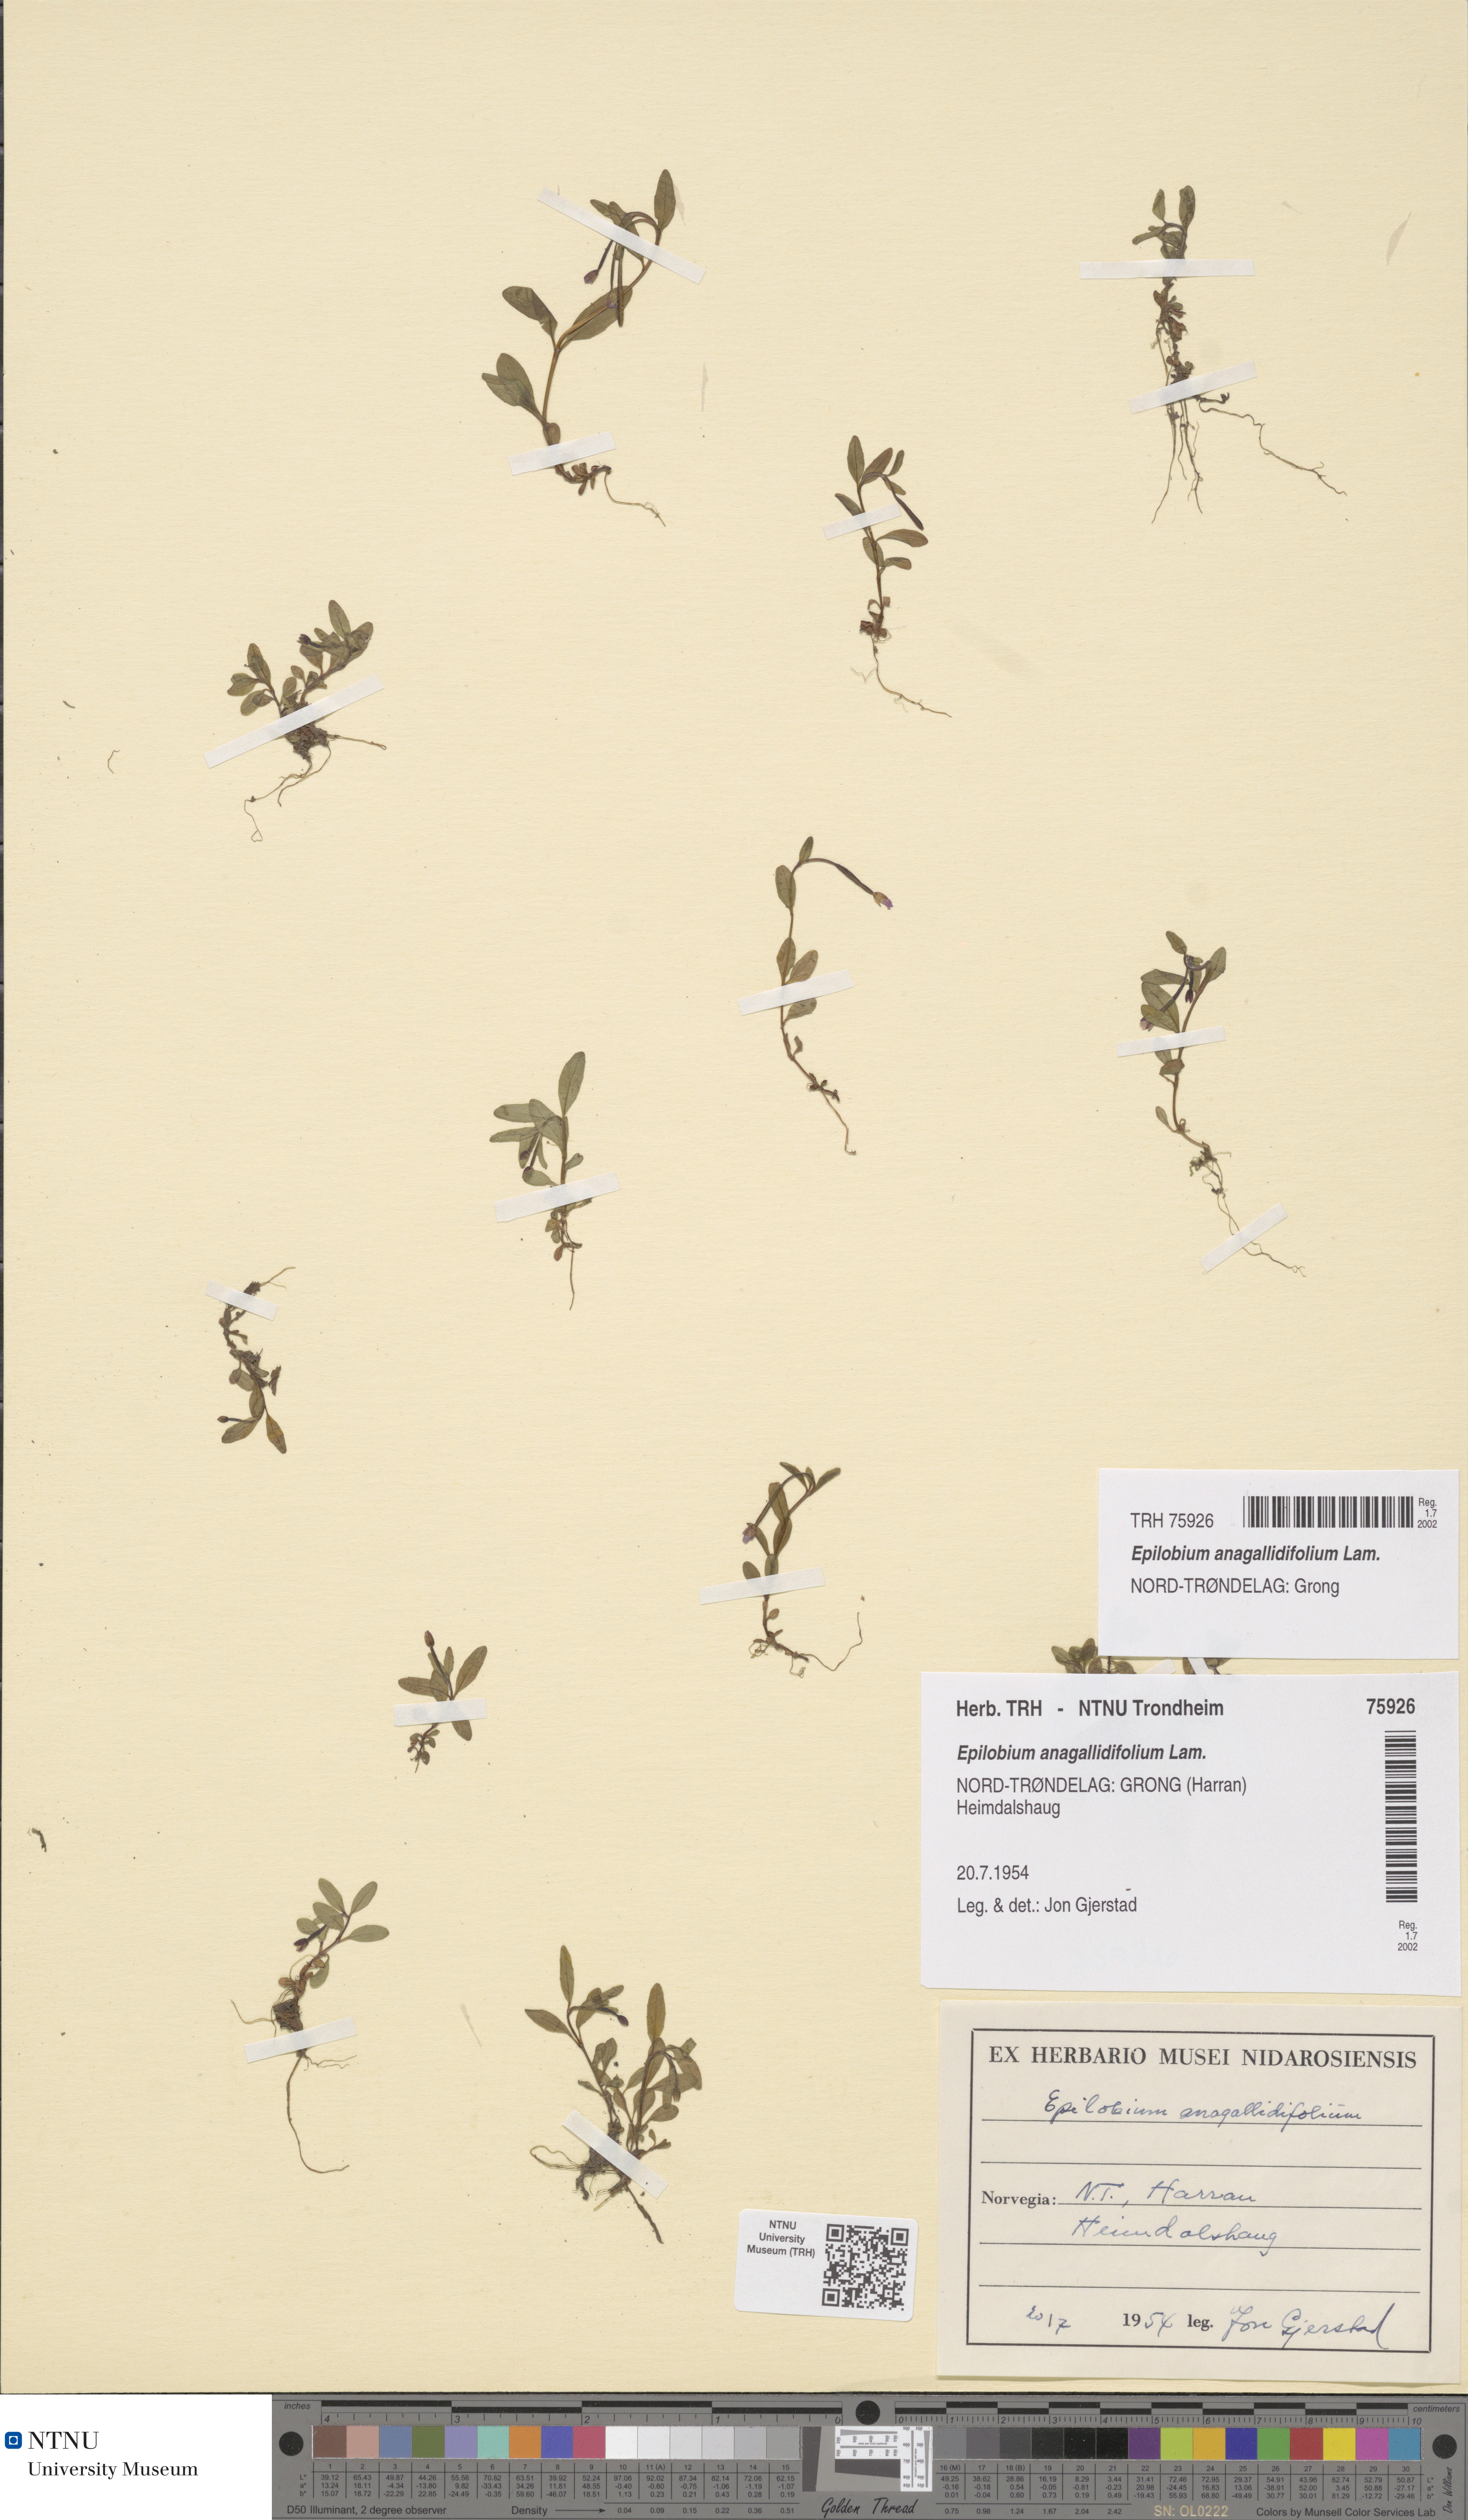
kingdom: Plantae
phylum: Tracheophyta
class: Magnoliopsida
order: Myrtales
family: Onagraceae
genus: Epilobium
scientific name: Epilobium anagallidifolium
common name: Alpine willowherb
